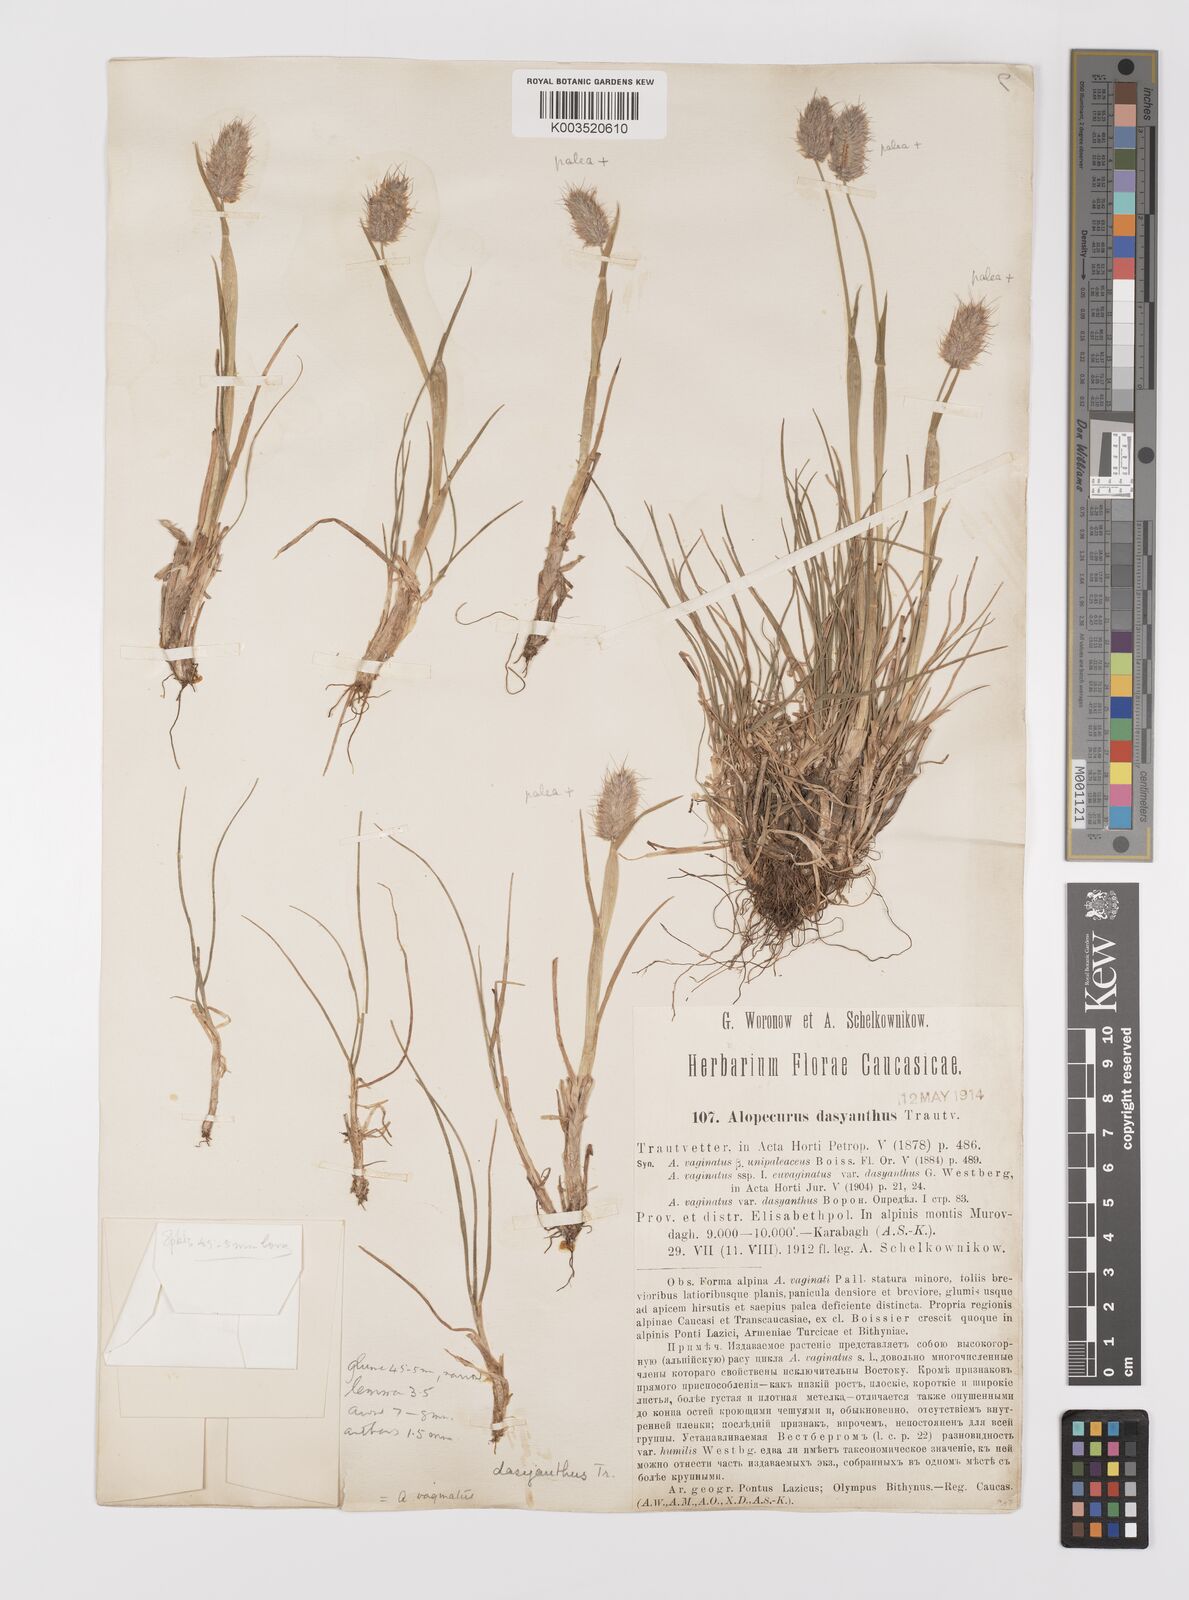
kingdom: Plantae
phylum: Tracheophyta
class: Liliopsida
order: Poales
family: Poaceae
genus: Alopecurus
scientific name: Alopecurus dasyanthus
